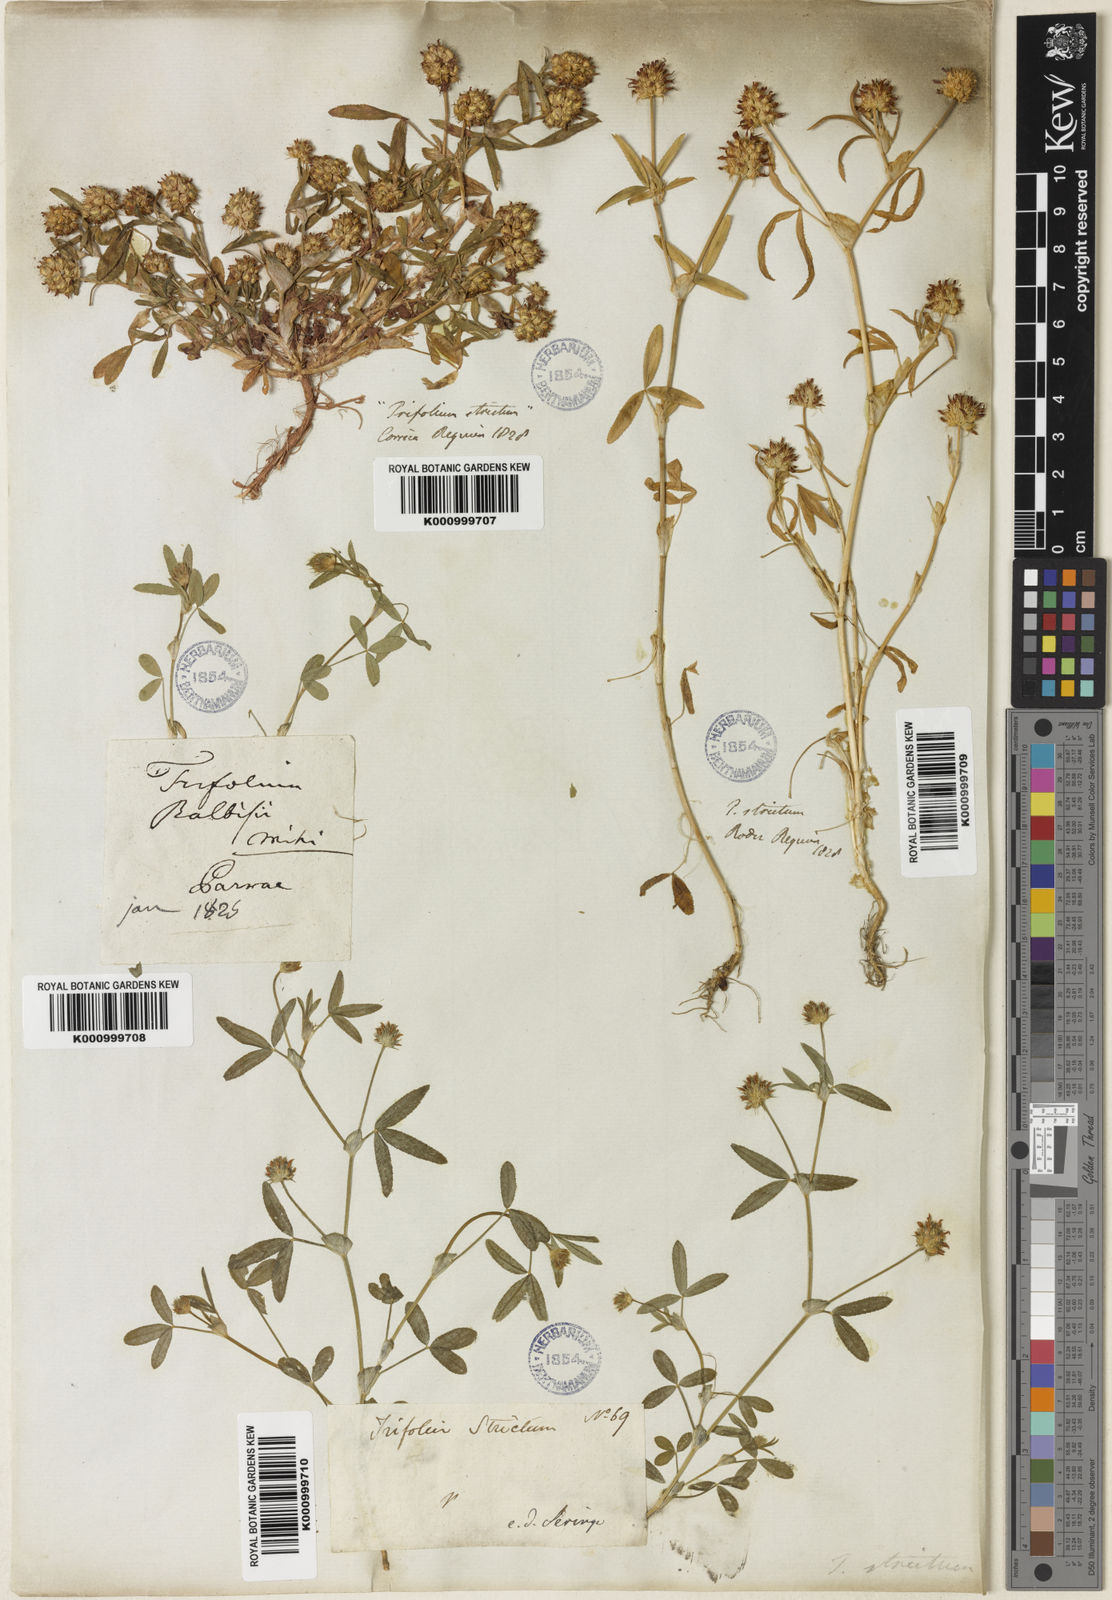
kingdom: Plantae
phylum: Tracheophyta
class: Magnoliopsida
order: Fabales
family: Fabaceae
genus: Trifolium
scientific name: Trifolium strictum
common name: Upright clover
